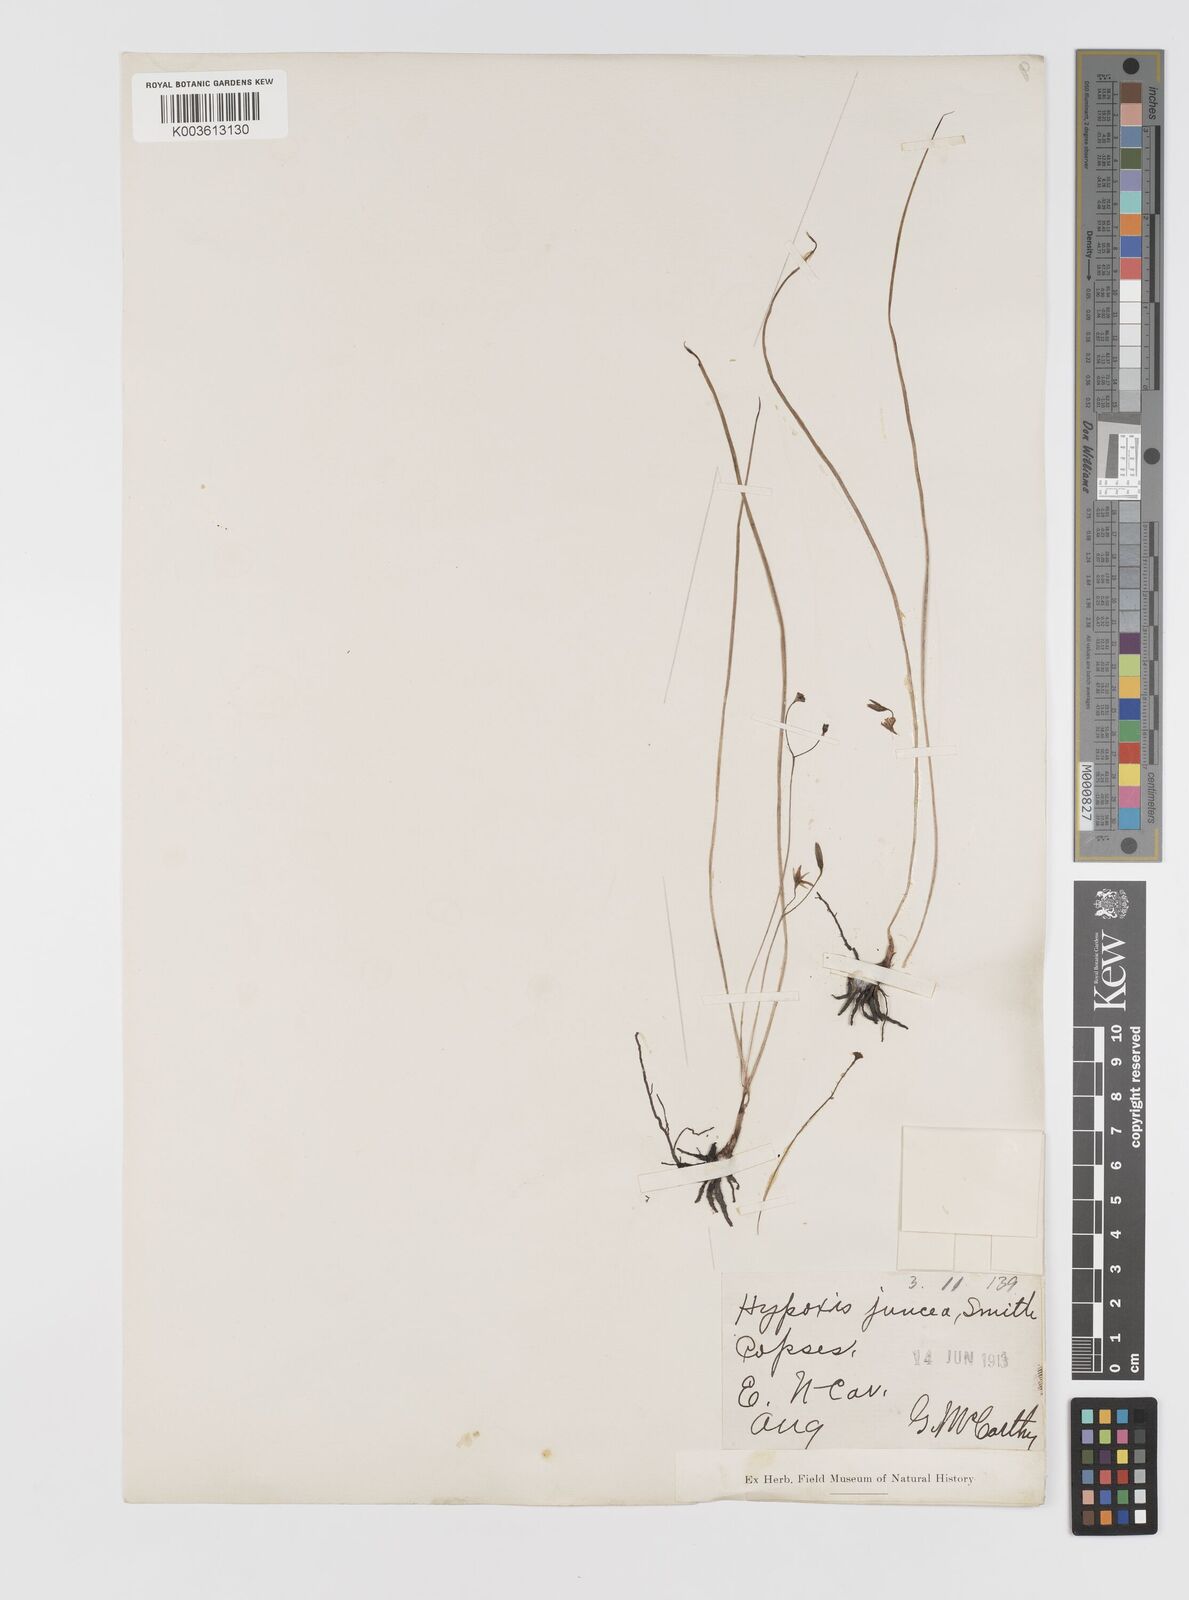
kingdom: Plantae
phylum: Tracheophyta
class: Liliopsida
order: Asparagales
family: Hypoxidaceae
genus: Hypoxis
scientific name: Hypoxis juncea
